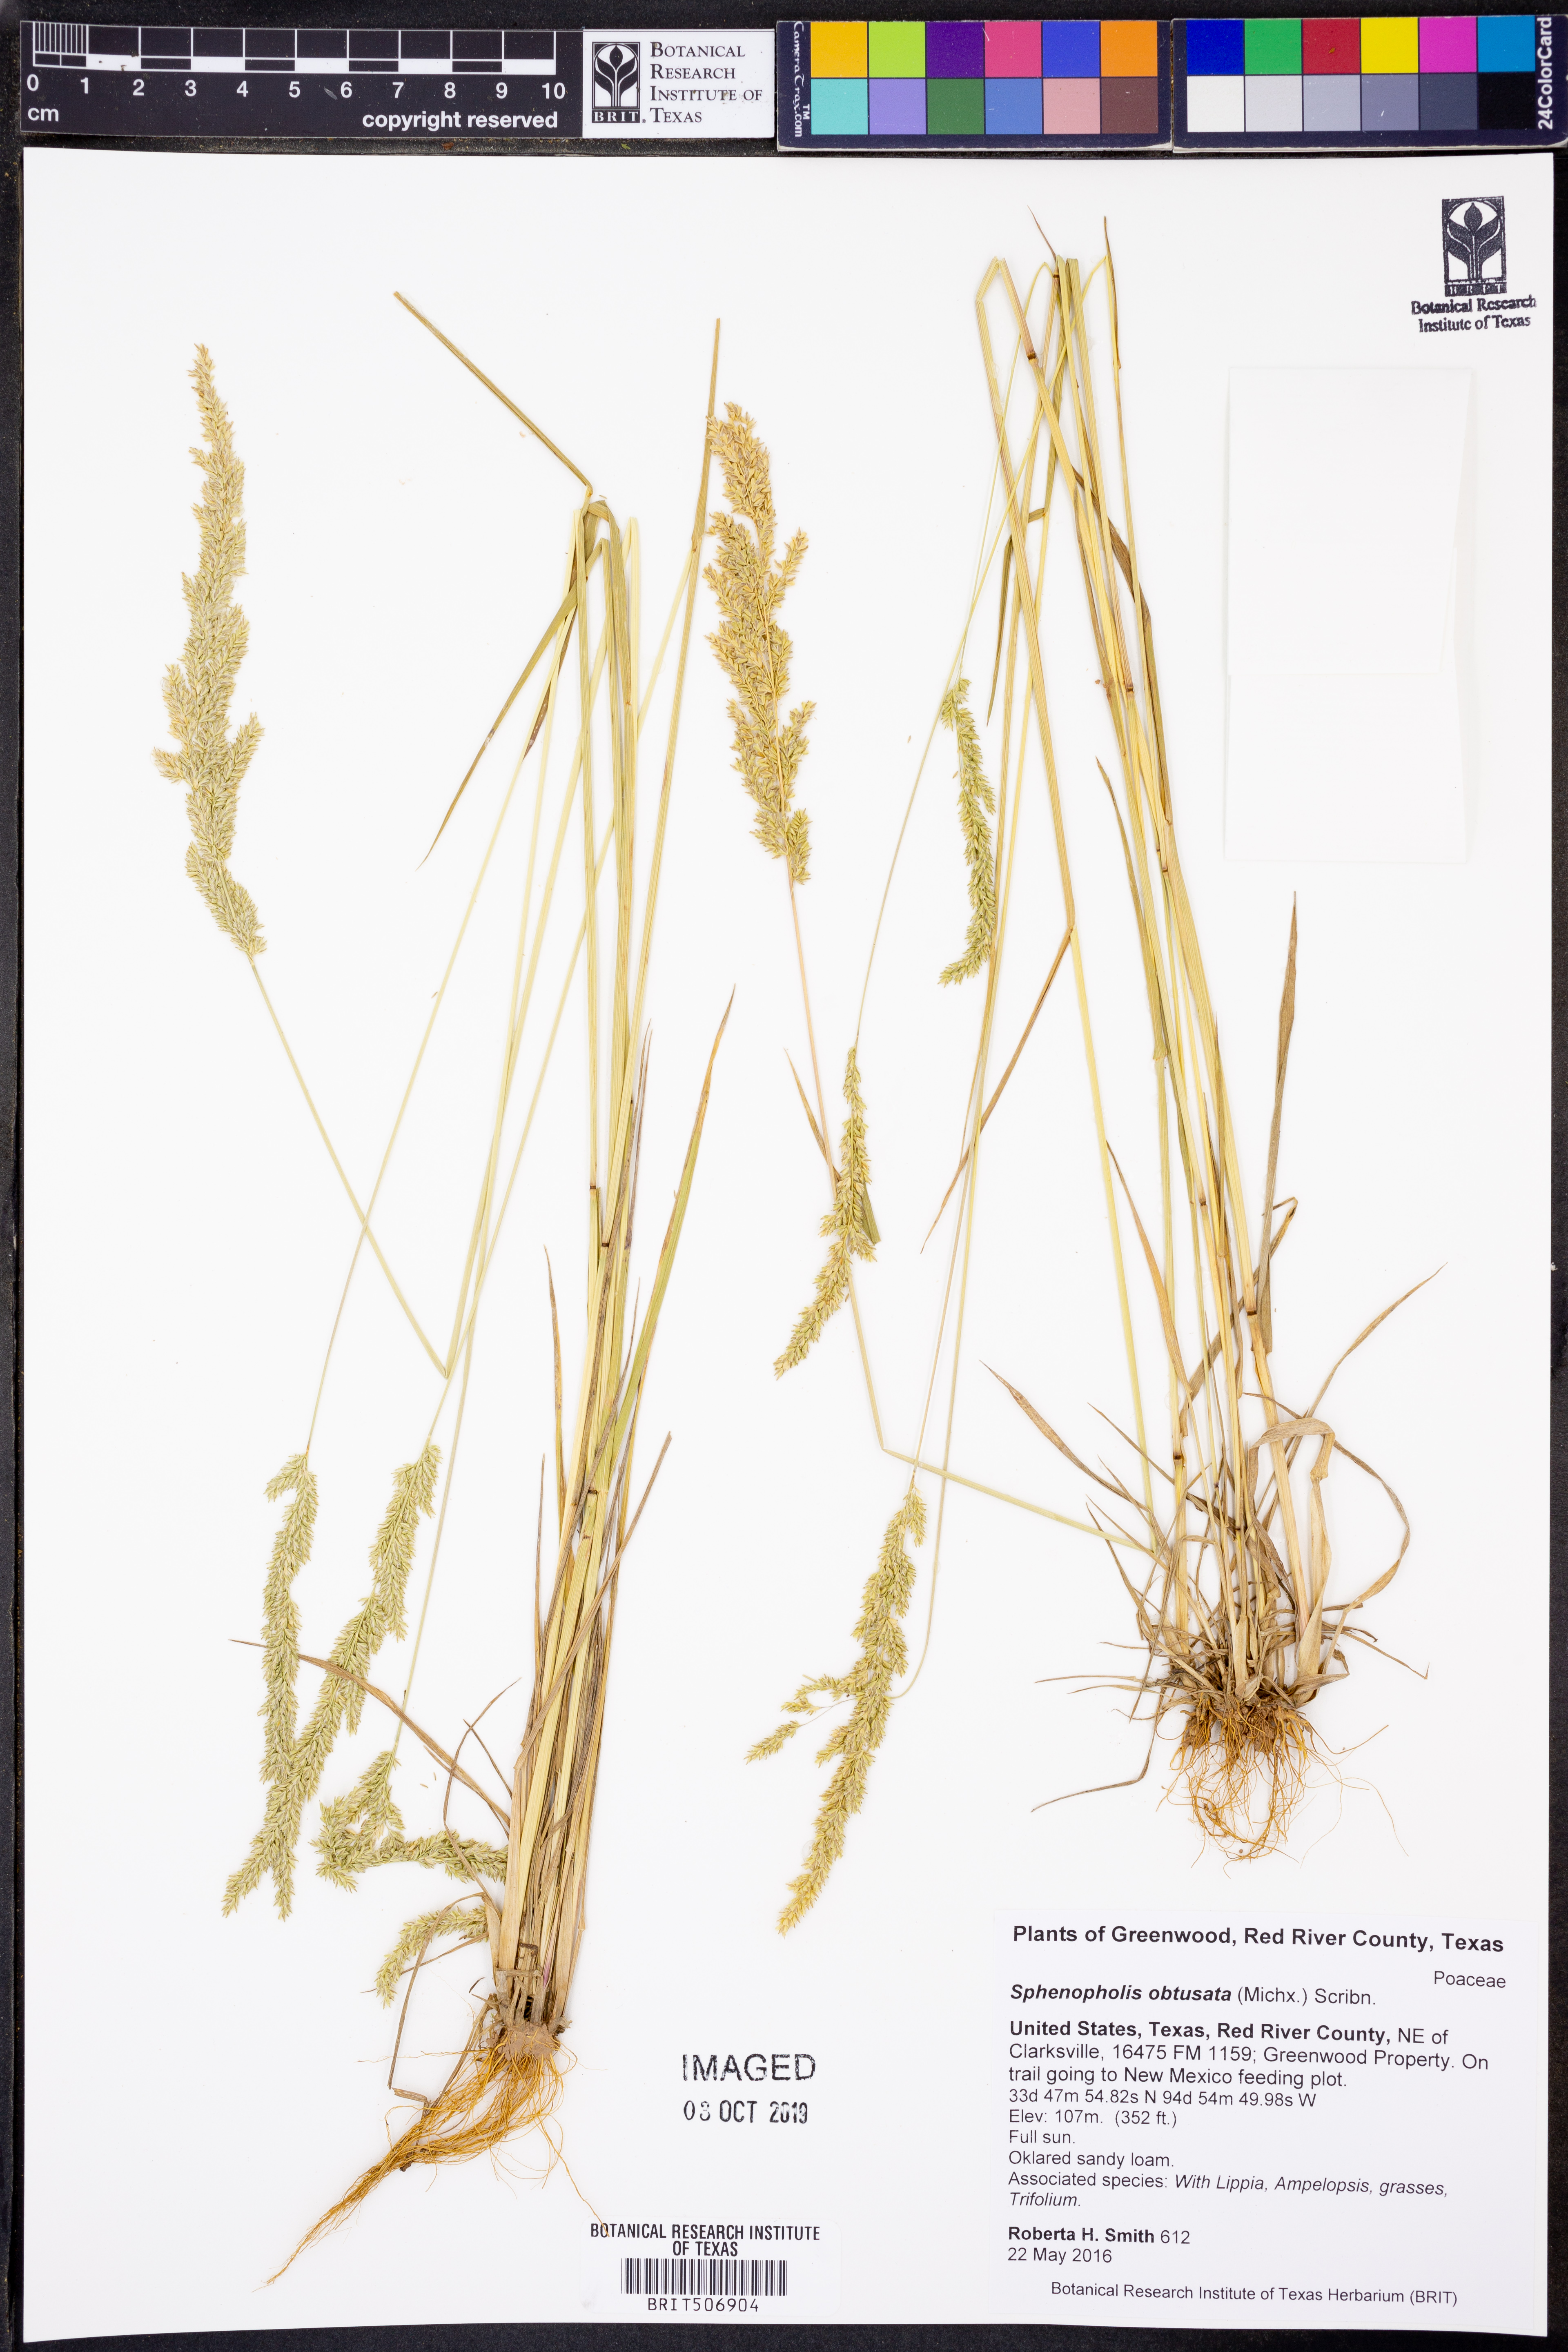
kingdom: Plantae
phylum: Tracheophyta
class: Liliopsida
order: Poales
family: Poaceae
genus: Sphenopholis
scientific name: Sphenopholis obtusata
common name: Prairie grass
